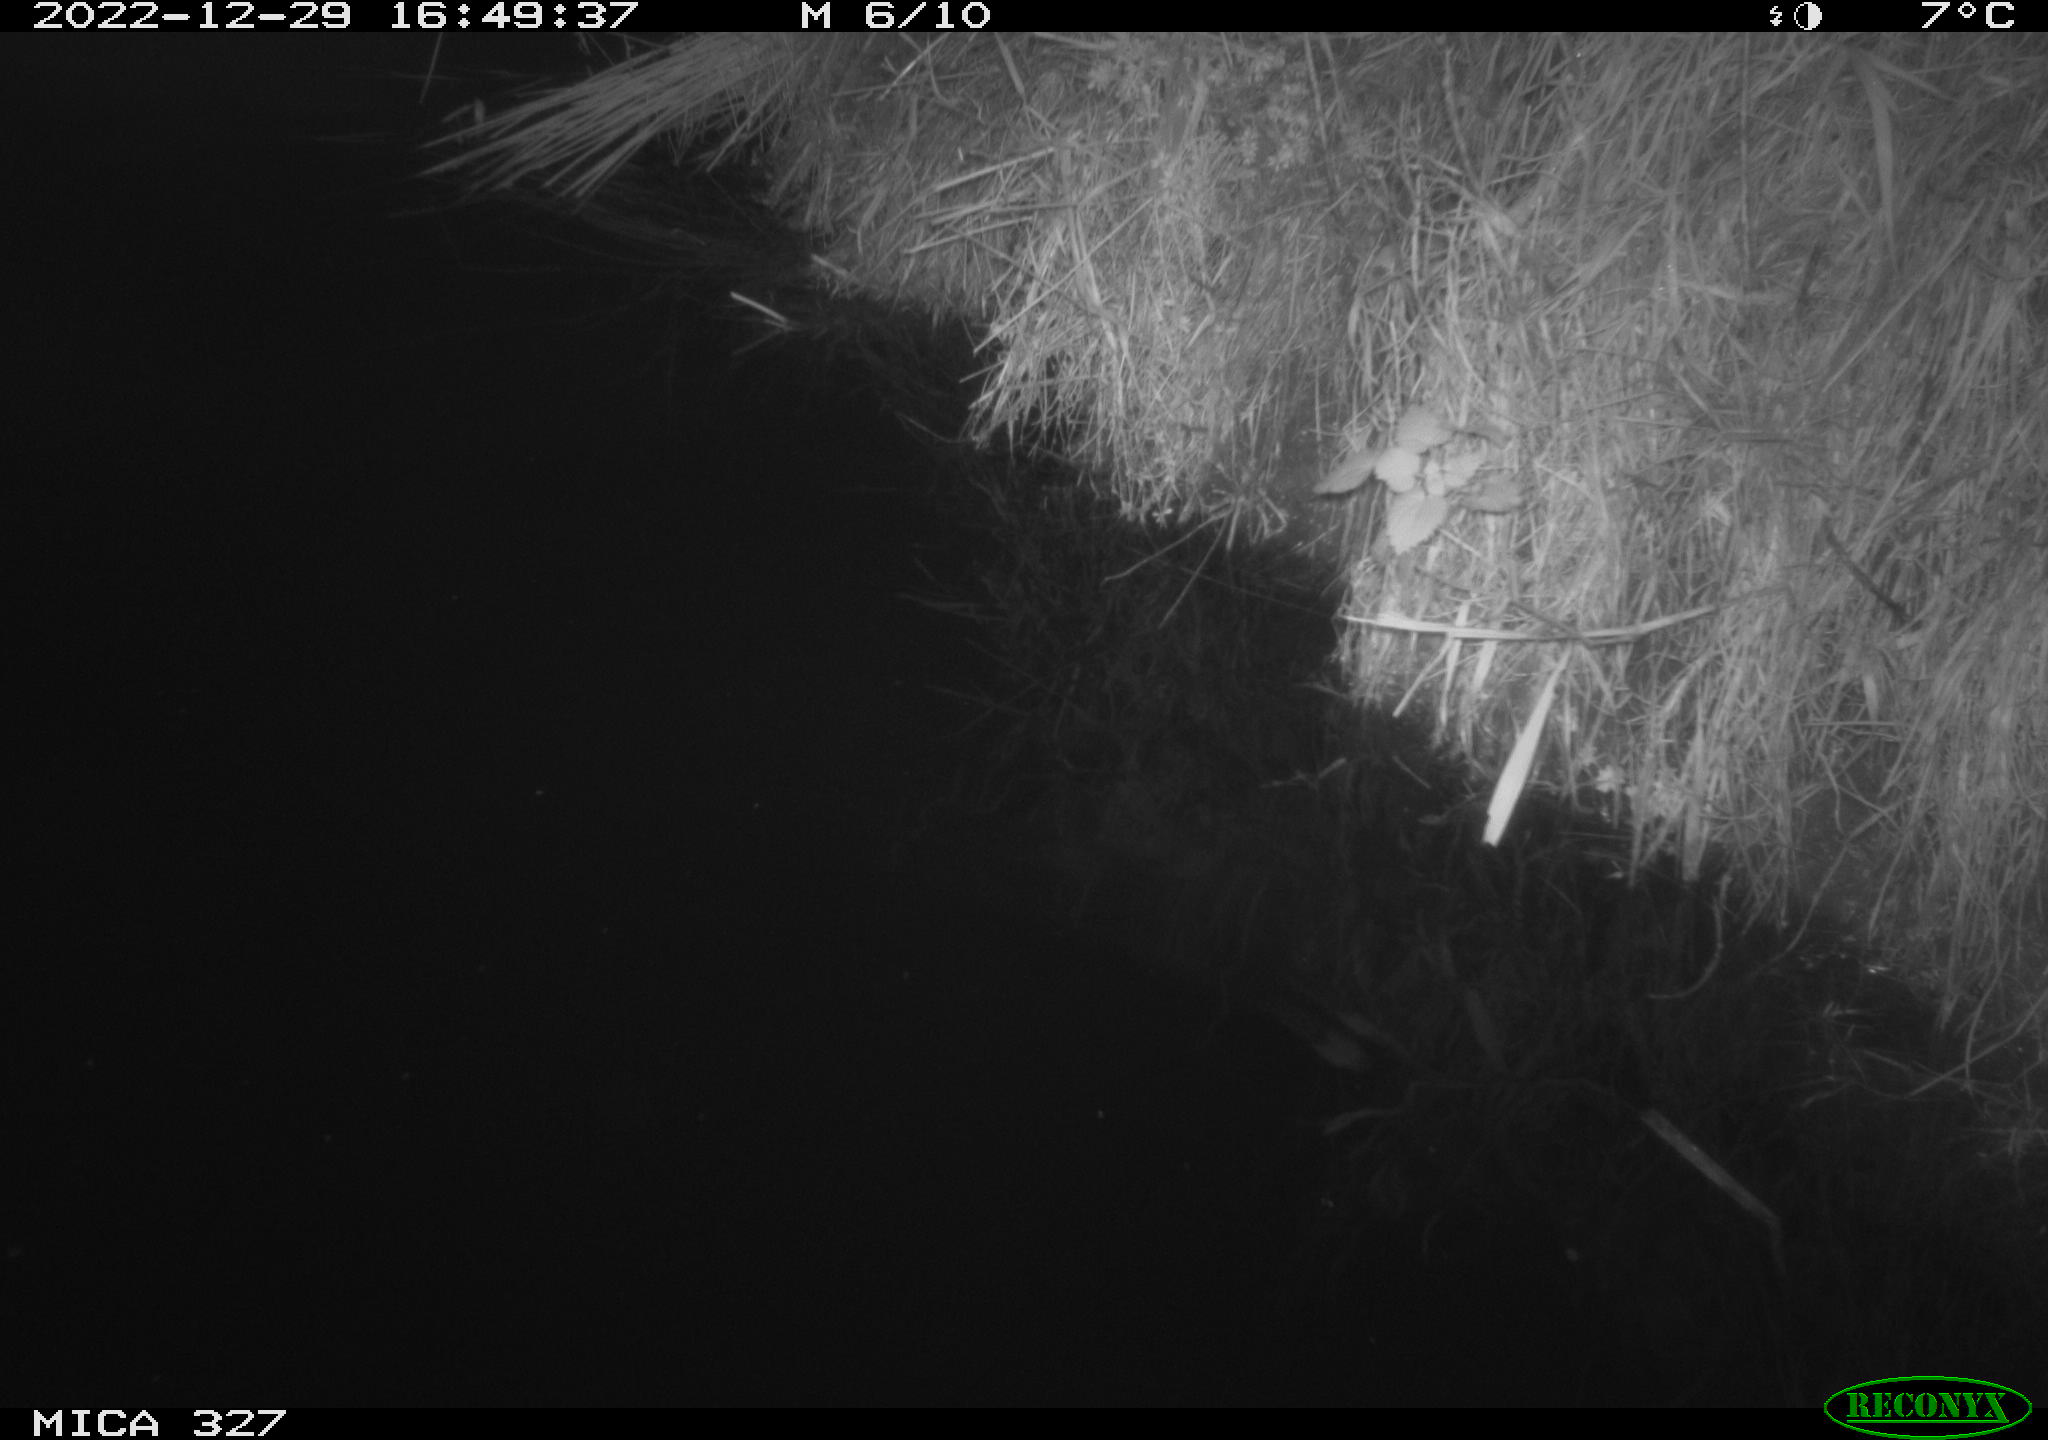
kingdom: Animalia
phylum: Chordata
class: Aves
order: Gruiformes
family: Rallidae
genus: Gallinula
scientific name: Gallinula chloropus
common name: Common moorhen
